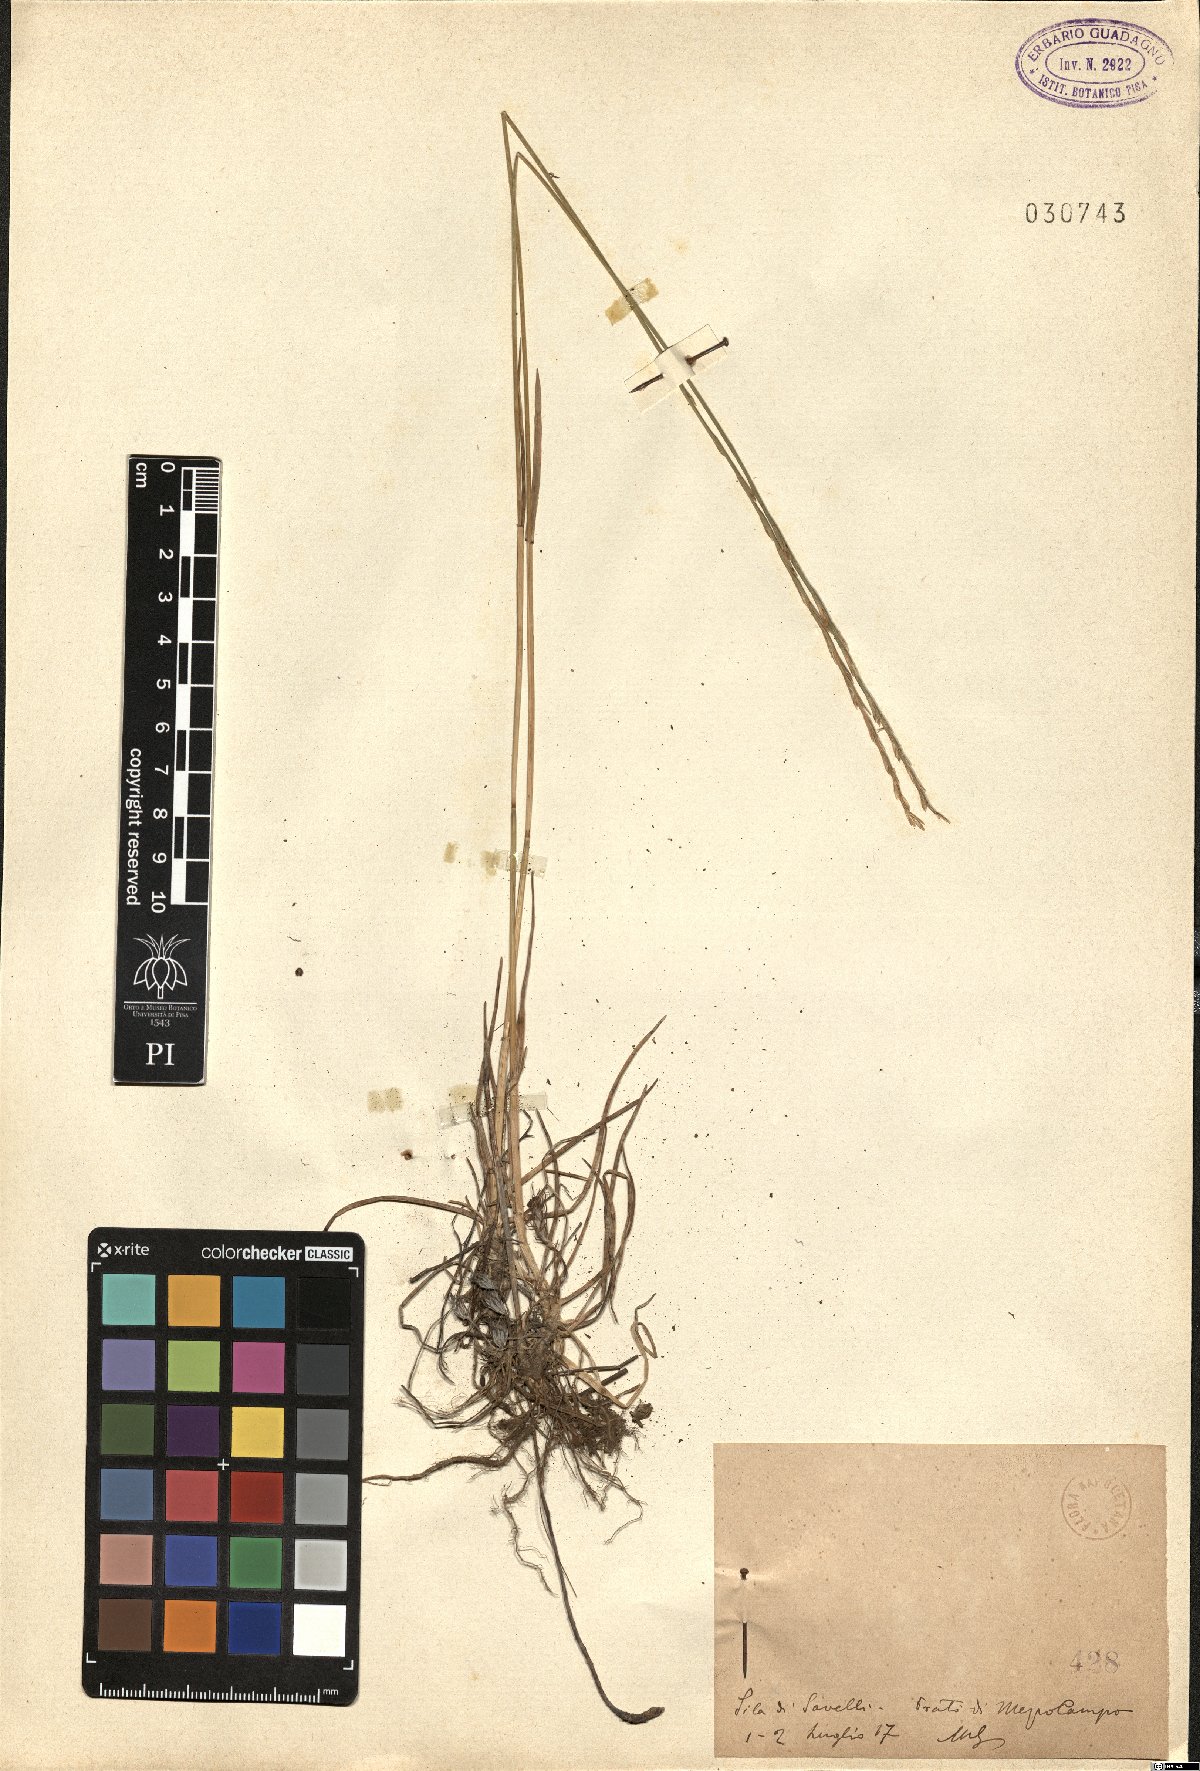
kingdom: Plantae
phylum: Tracheophyta
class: Liliopsida
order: Poales
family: Poaceae
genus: Lolium
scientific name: Lolium
